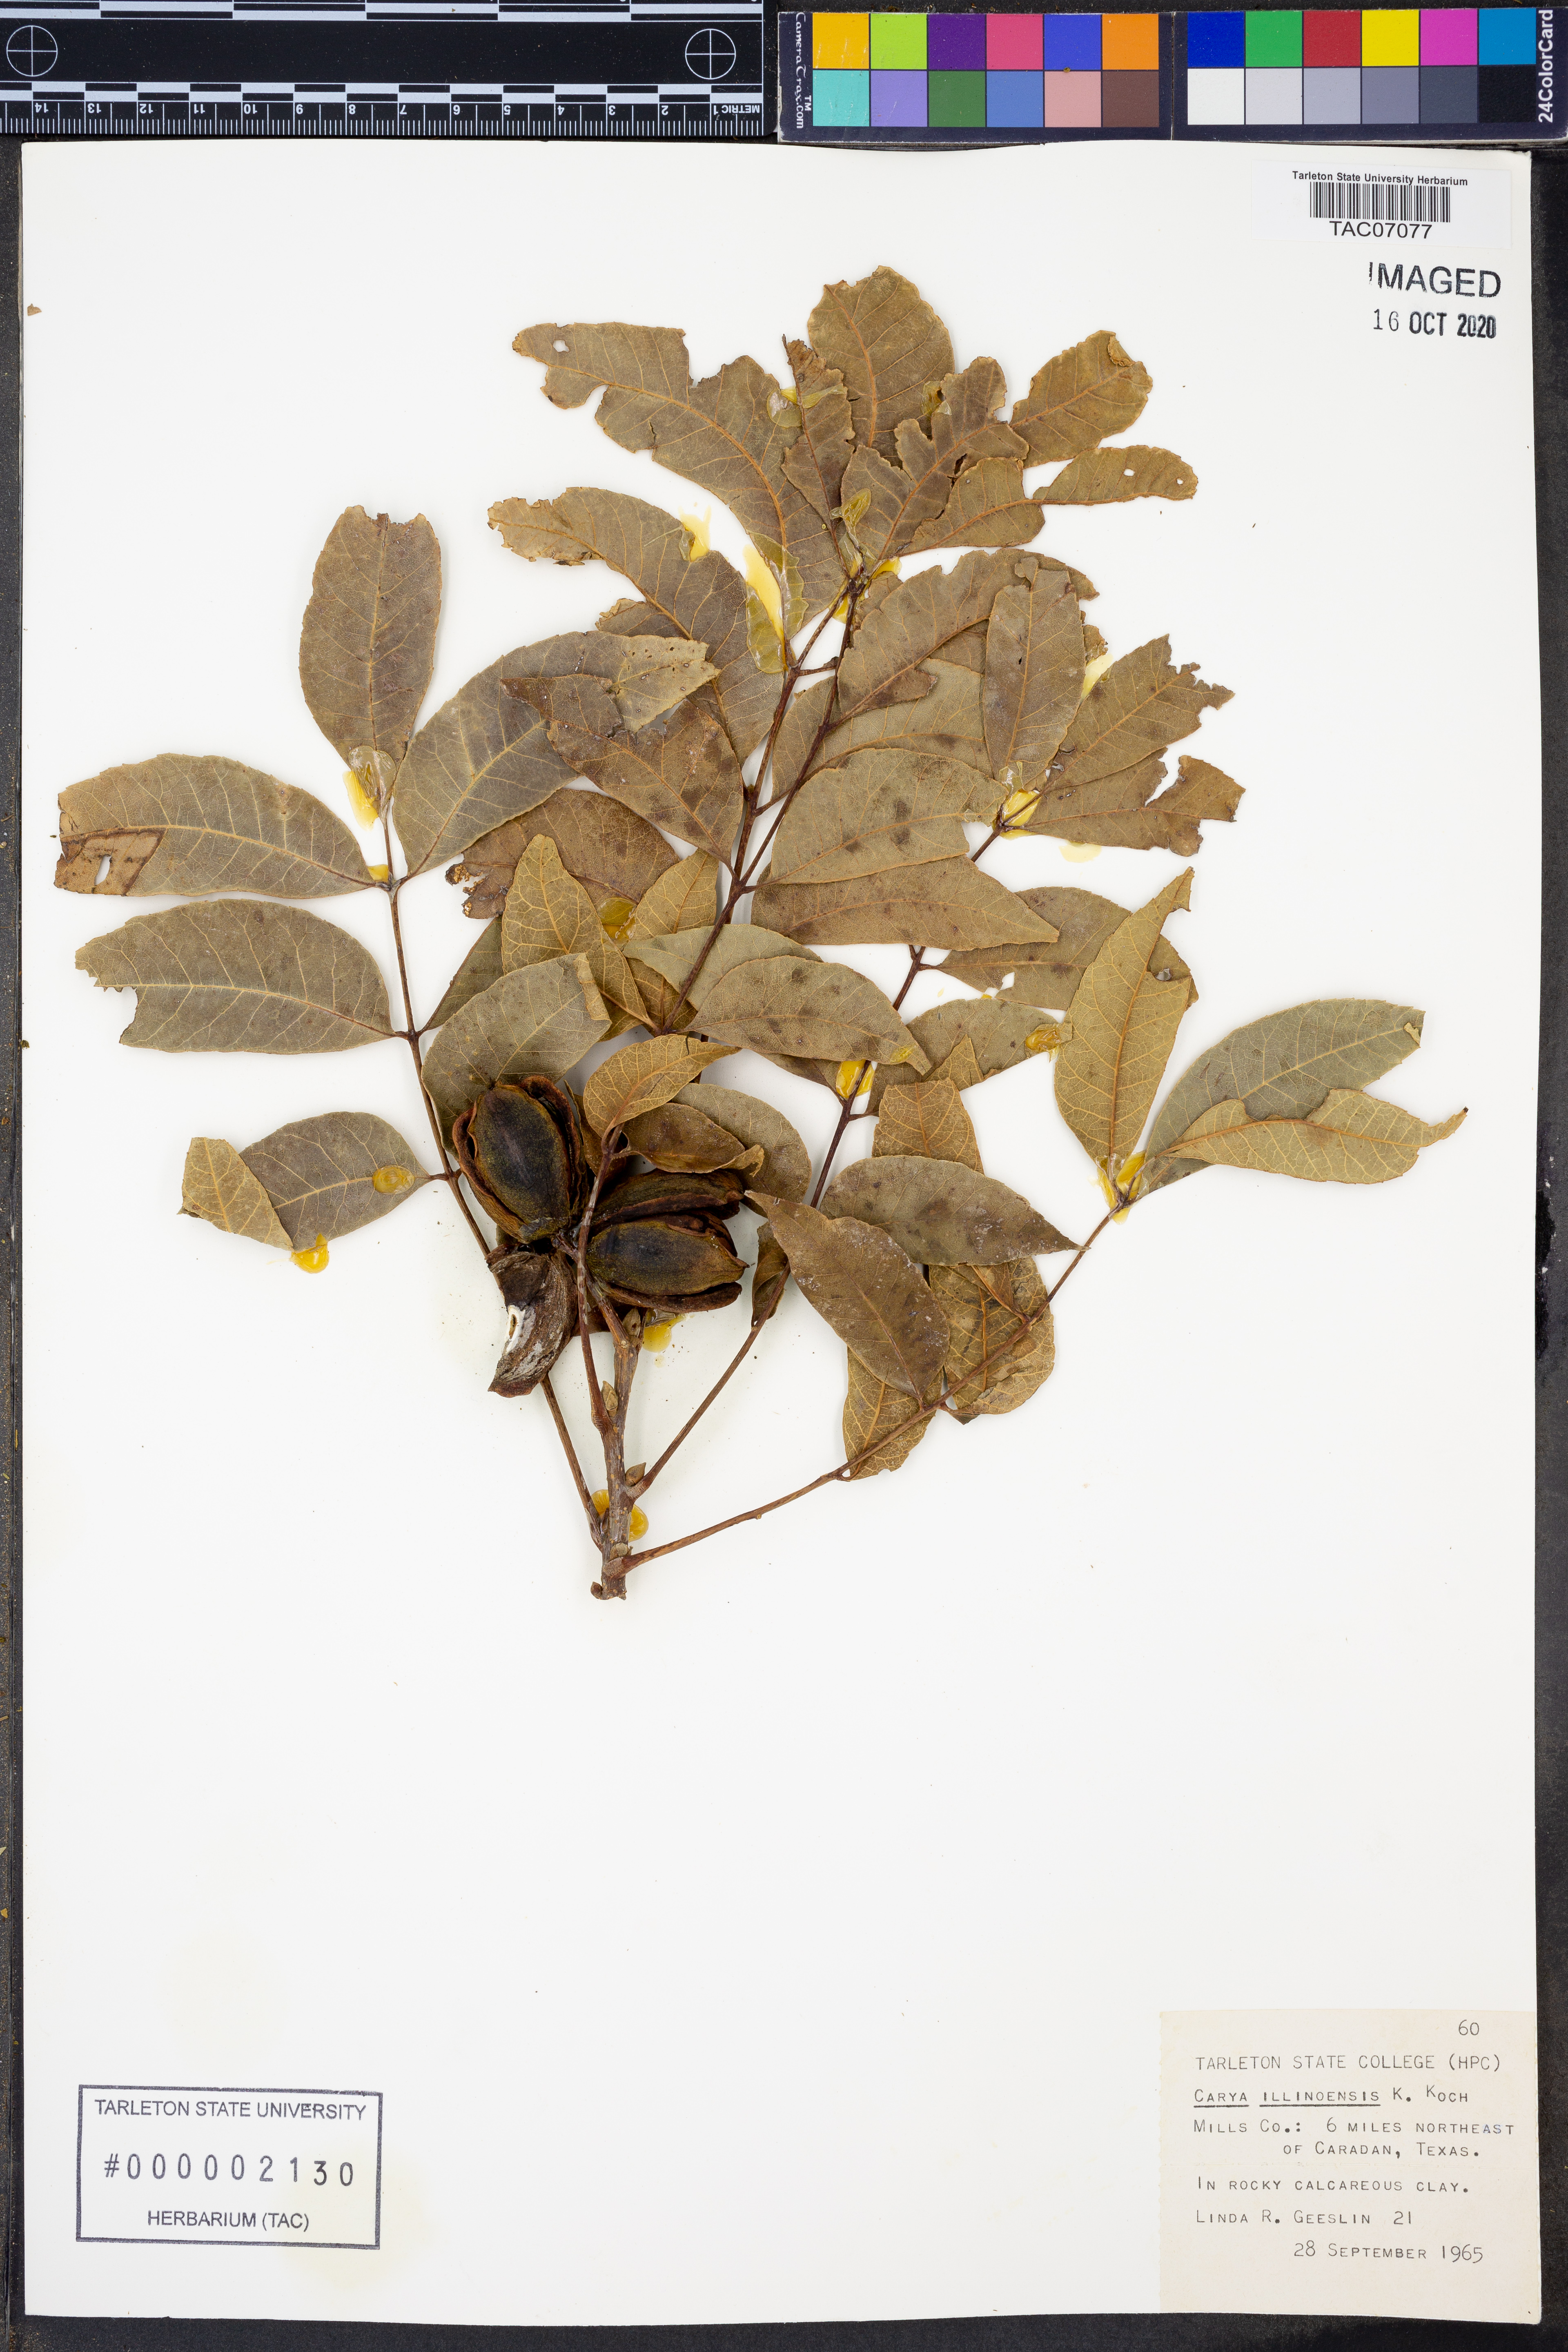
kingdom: Plantae
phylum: Tracheophyta
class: Magnoliopsida
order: Fagales
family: Juglandaceae
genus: Carya
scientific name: Carya
